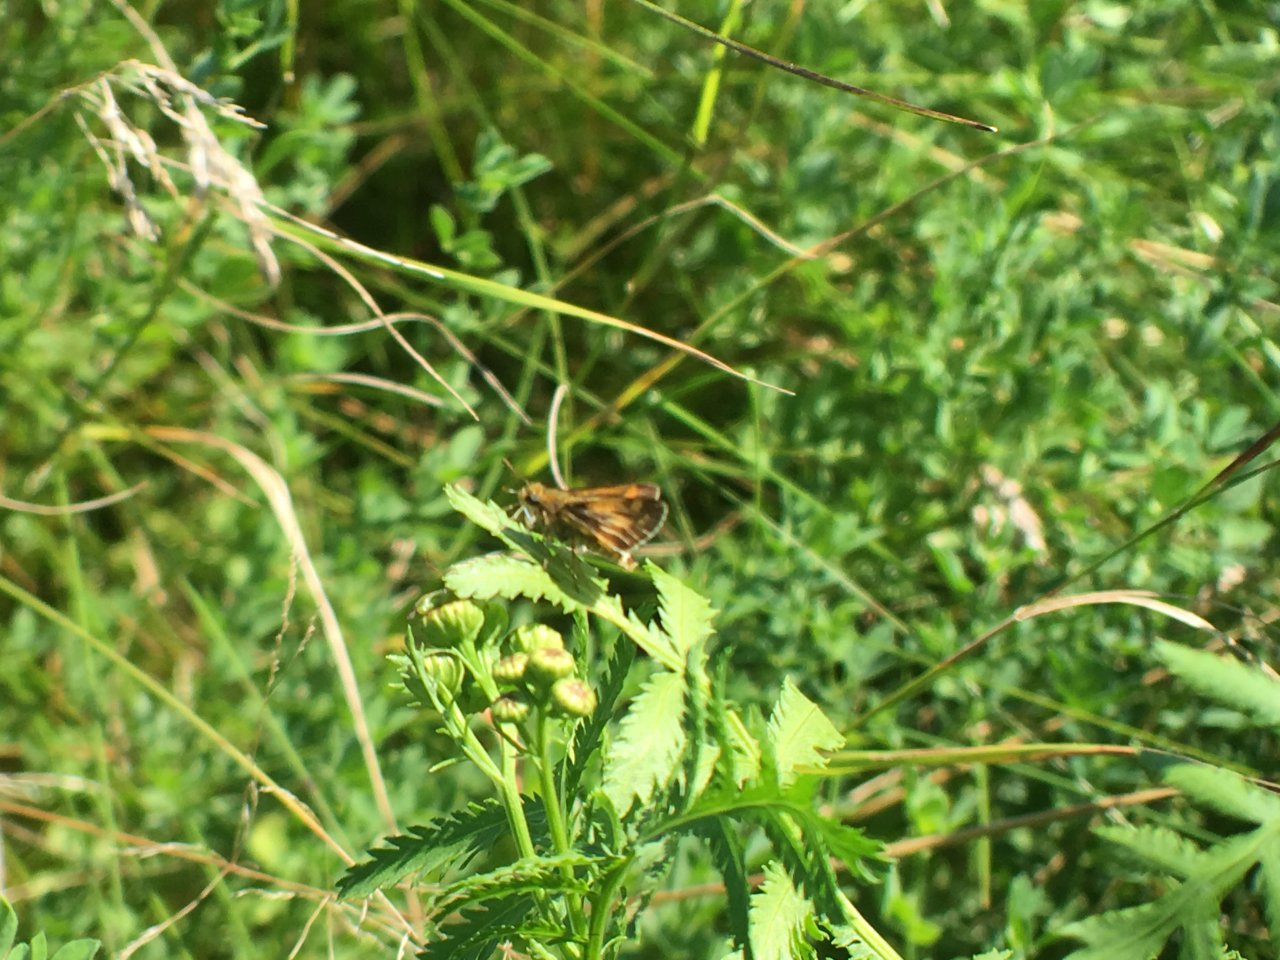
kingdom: Animalia
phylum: Arthropoda
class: Insecta
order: Lepidoptera
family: Hesperiidae
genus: Polites
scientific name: Polites coras
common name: Peck's Skipper
